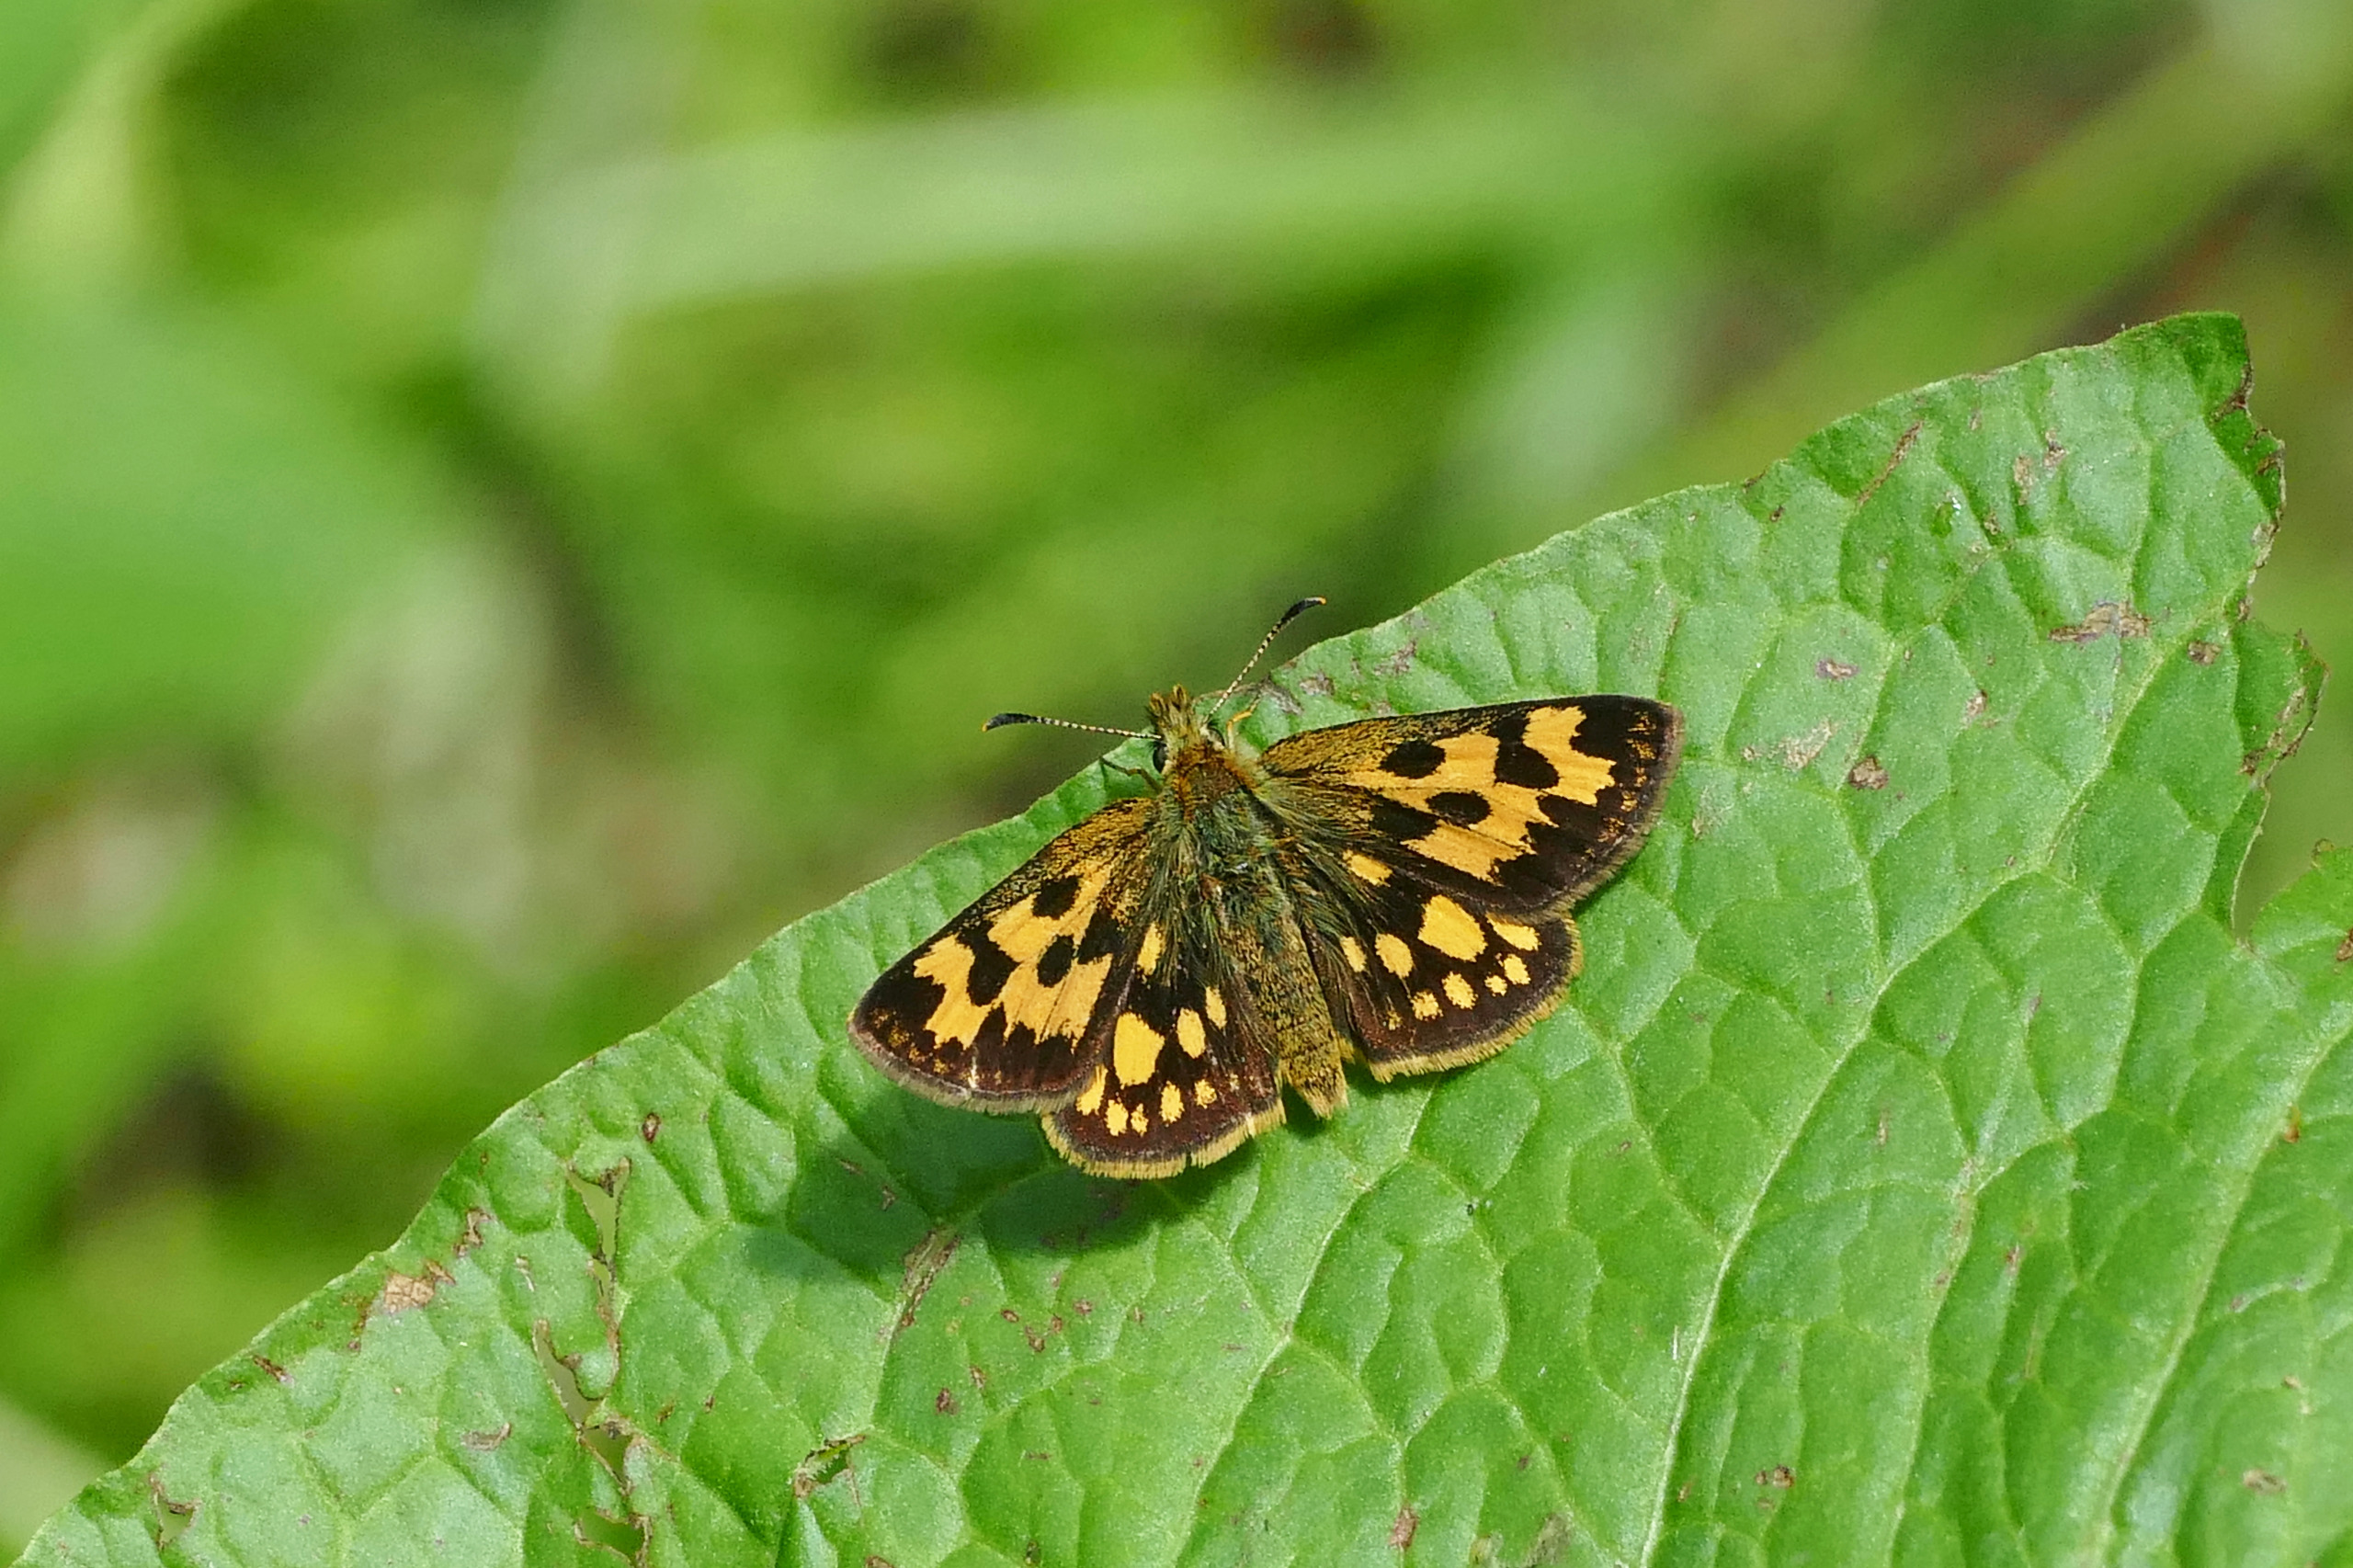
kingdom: Animalia
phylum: Arthropoda
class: Insecta
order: Lepidoptera
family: Hesperiidae
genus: Carterocephalus
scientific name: Carterocephalus silvicola
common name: Sortplettet bredpande
